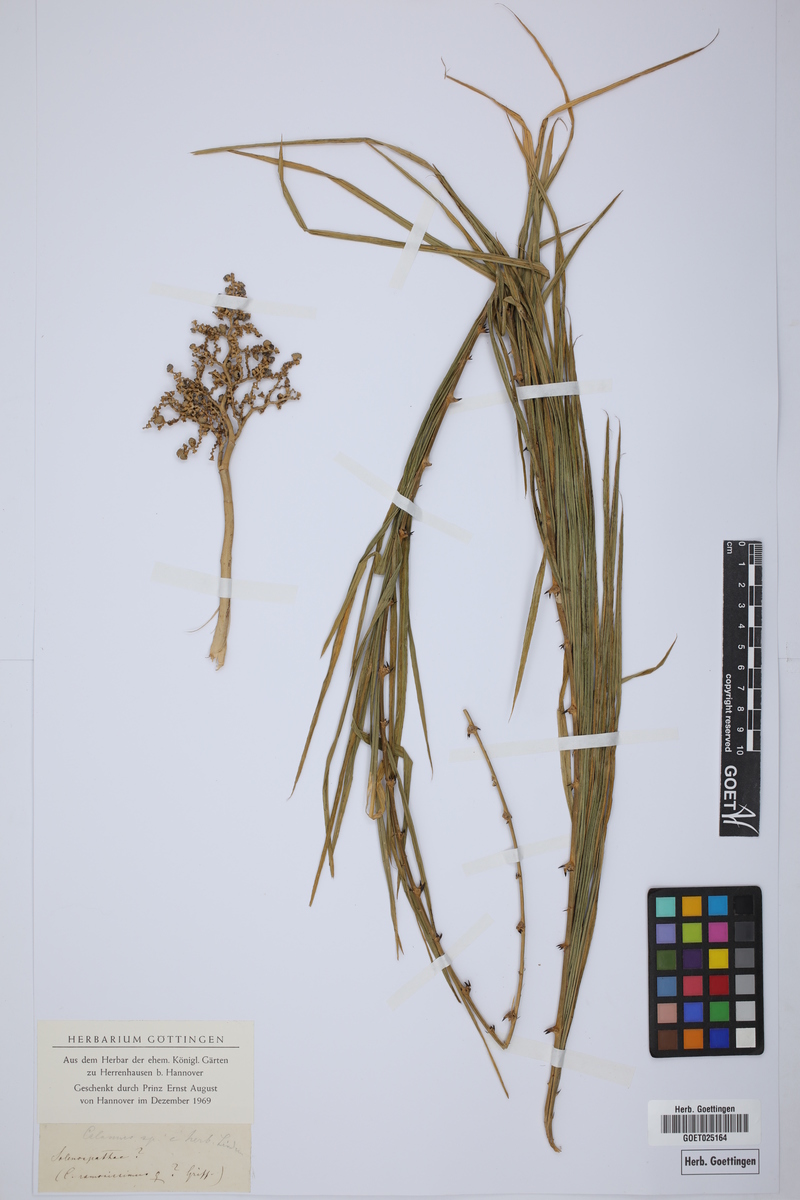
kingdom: Plantae
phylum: Tracheophyta
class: Liliopsida
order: Arecales
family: Arecaceae
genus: Calamus
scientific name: Calamus longipes
